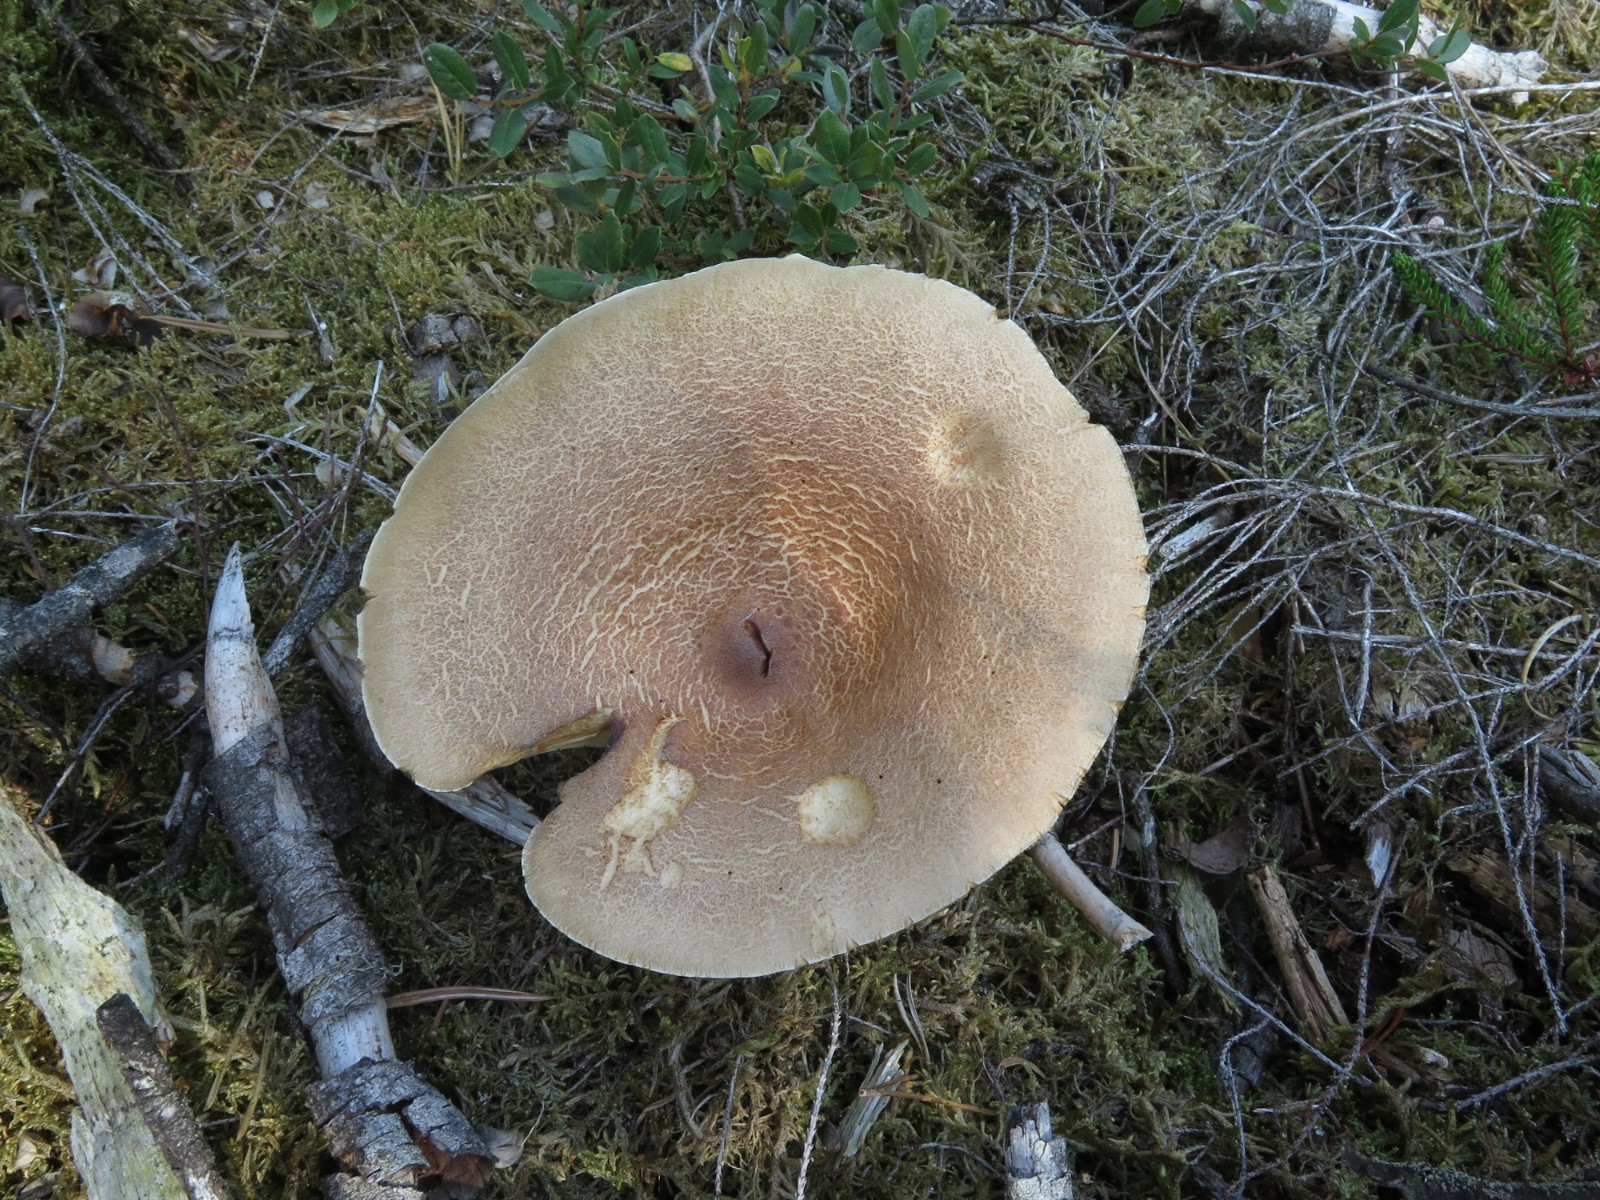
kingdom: Fungi
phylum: Basidiomycota
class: Agaricomycetes
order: Russulales
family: Russulaceae
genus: Lactarius
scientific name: Lactarius helvus
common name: mose-mælkehat
